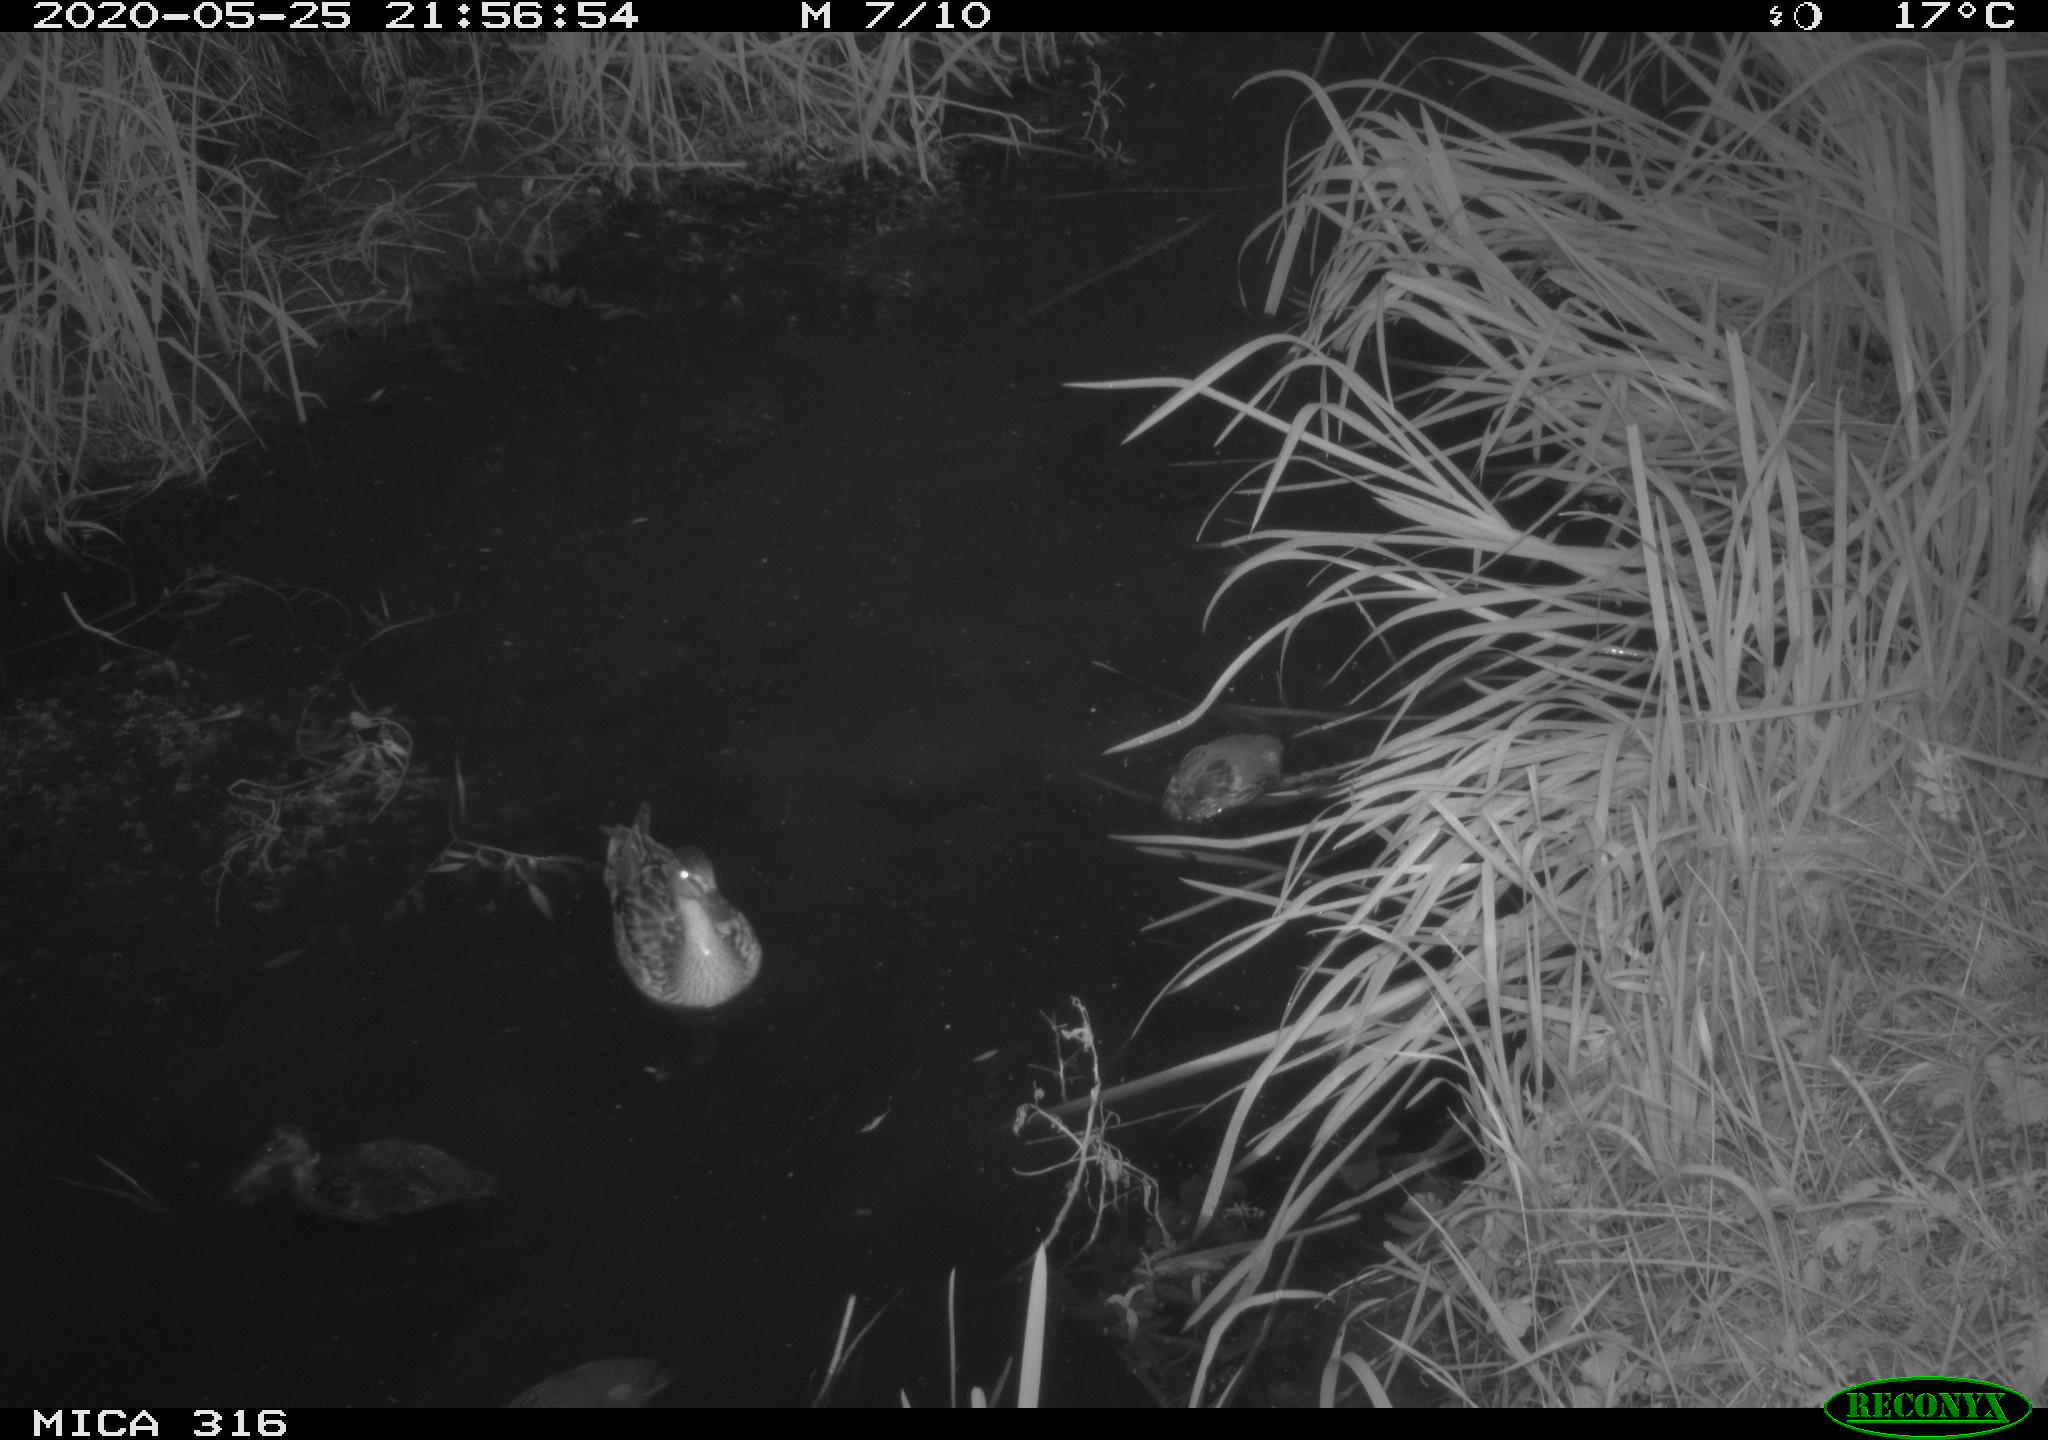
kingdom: Animalia
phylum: Chordata
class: Aves
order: Anseriformes
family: Anatidae
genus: Anas
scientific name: Anas platyrhynchos
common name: Mallard
